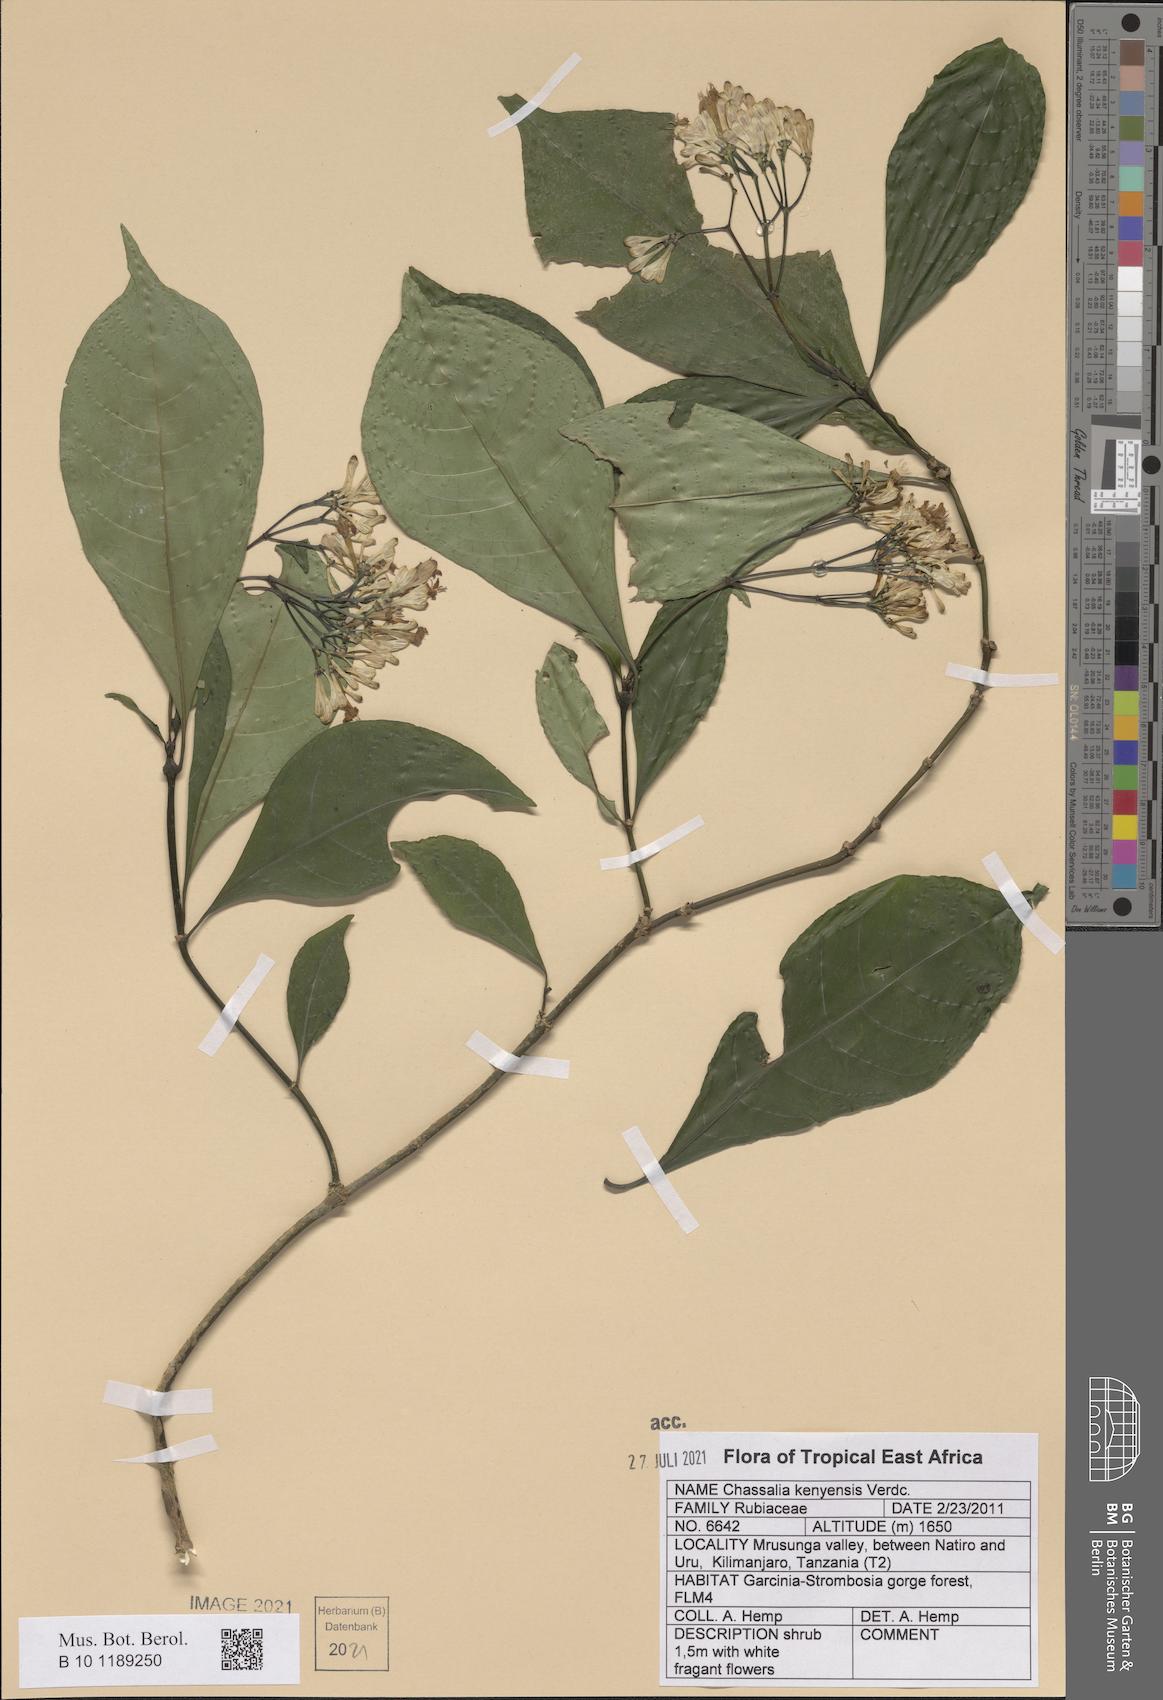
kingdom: Plantae
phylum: Tracheophyta
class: Magnoliopsida
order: Gentianales
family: Rubiaceae
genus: Chassalia
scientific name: Chassalia kenyensis
